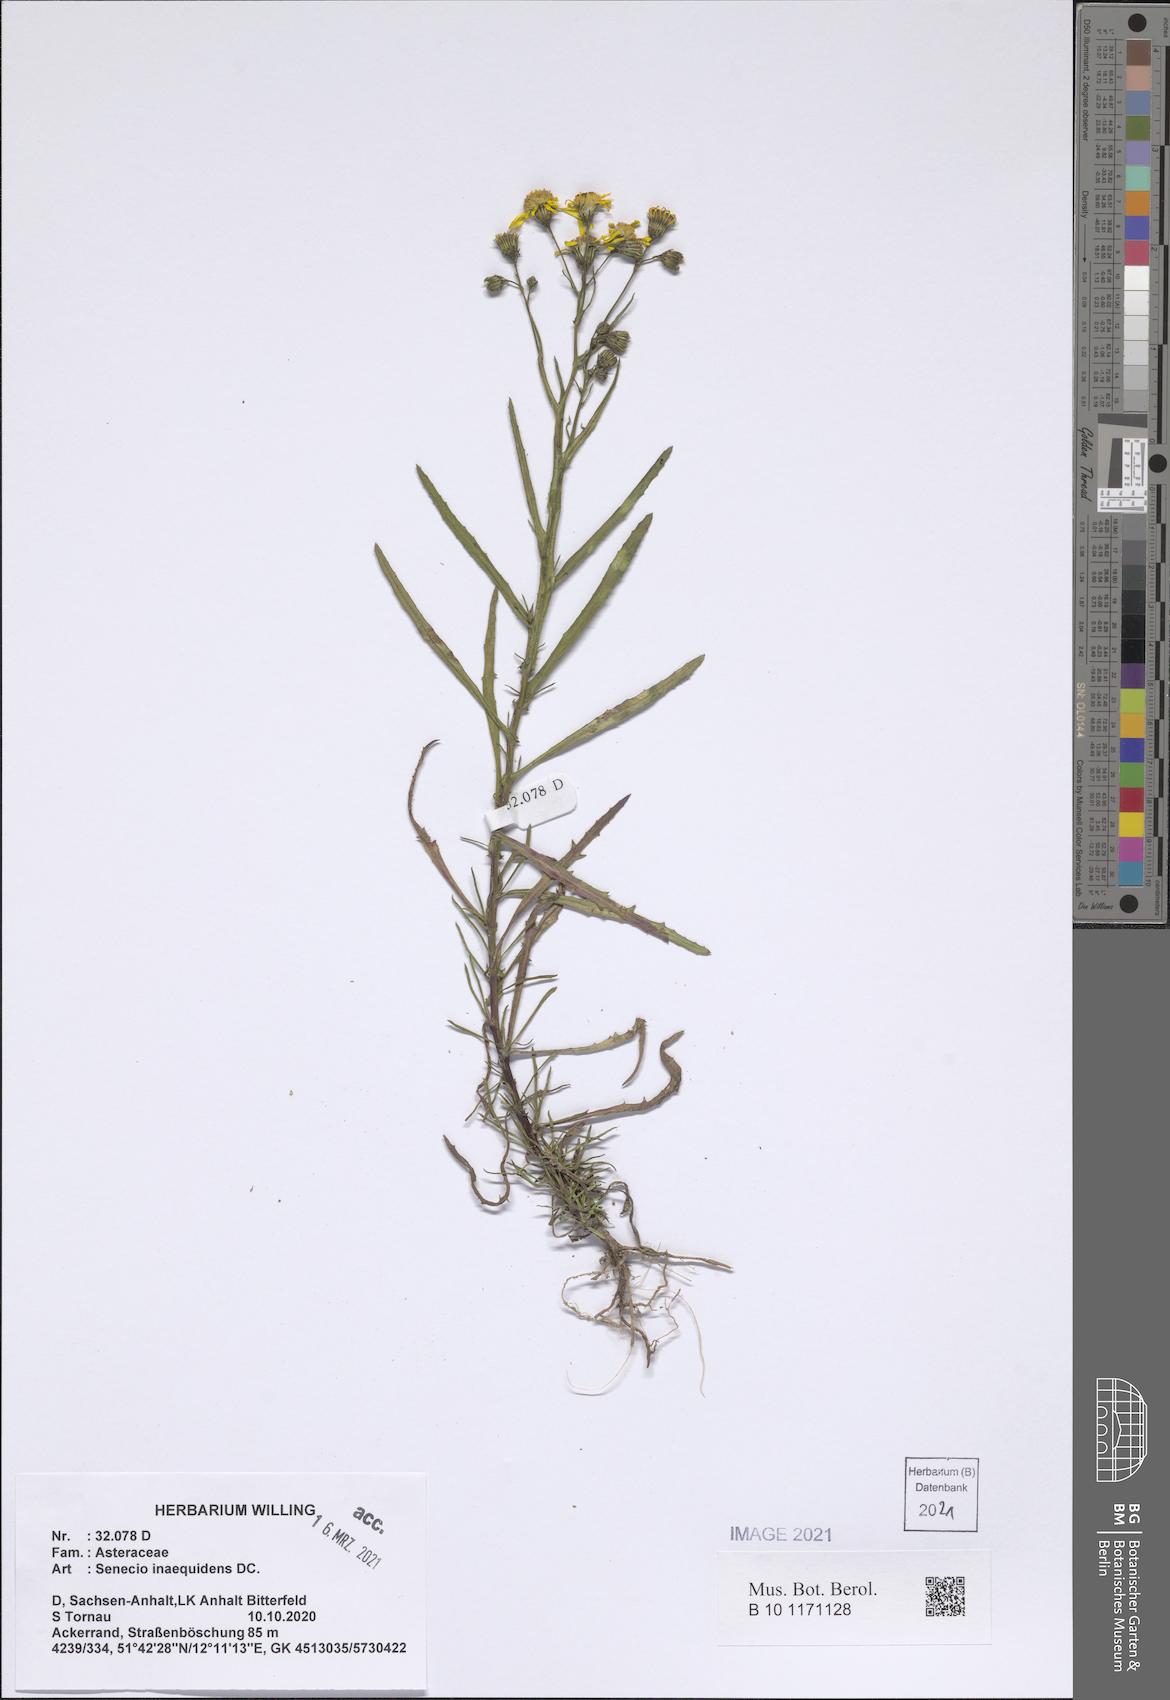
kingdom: Plantae
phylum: Tracheophyta
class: Magnoliopsida
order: Asterales
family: Asteraceae
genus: Senecio
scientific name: Senecio inaequidens
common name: Narrow-leaved ragwort
